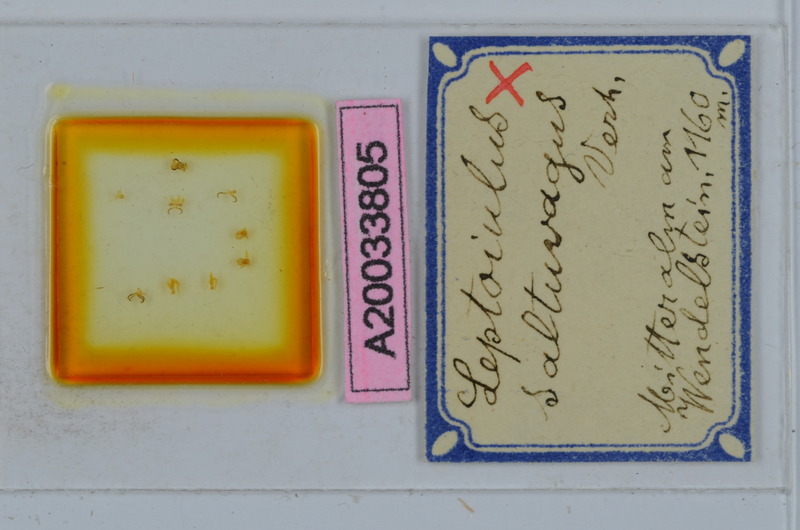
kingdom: Animalia
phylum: Arthropoda
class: Diplopoda
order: Julida
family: Julidae
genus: Leptoiulus
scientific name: Leptoiulus saltuvagus
